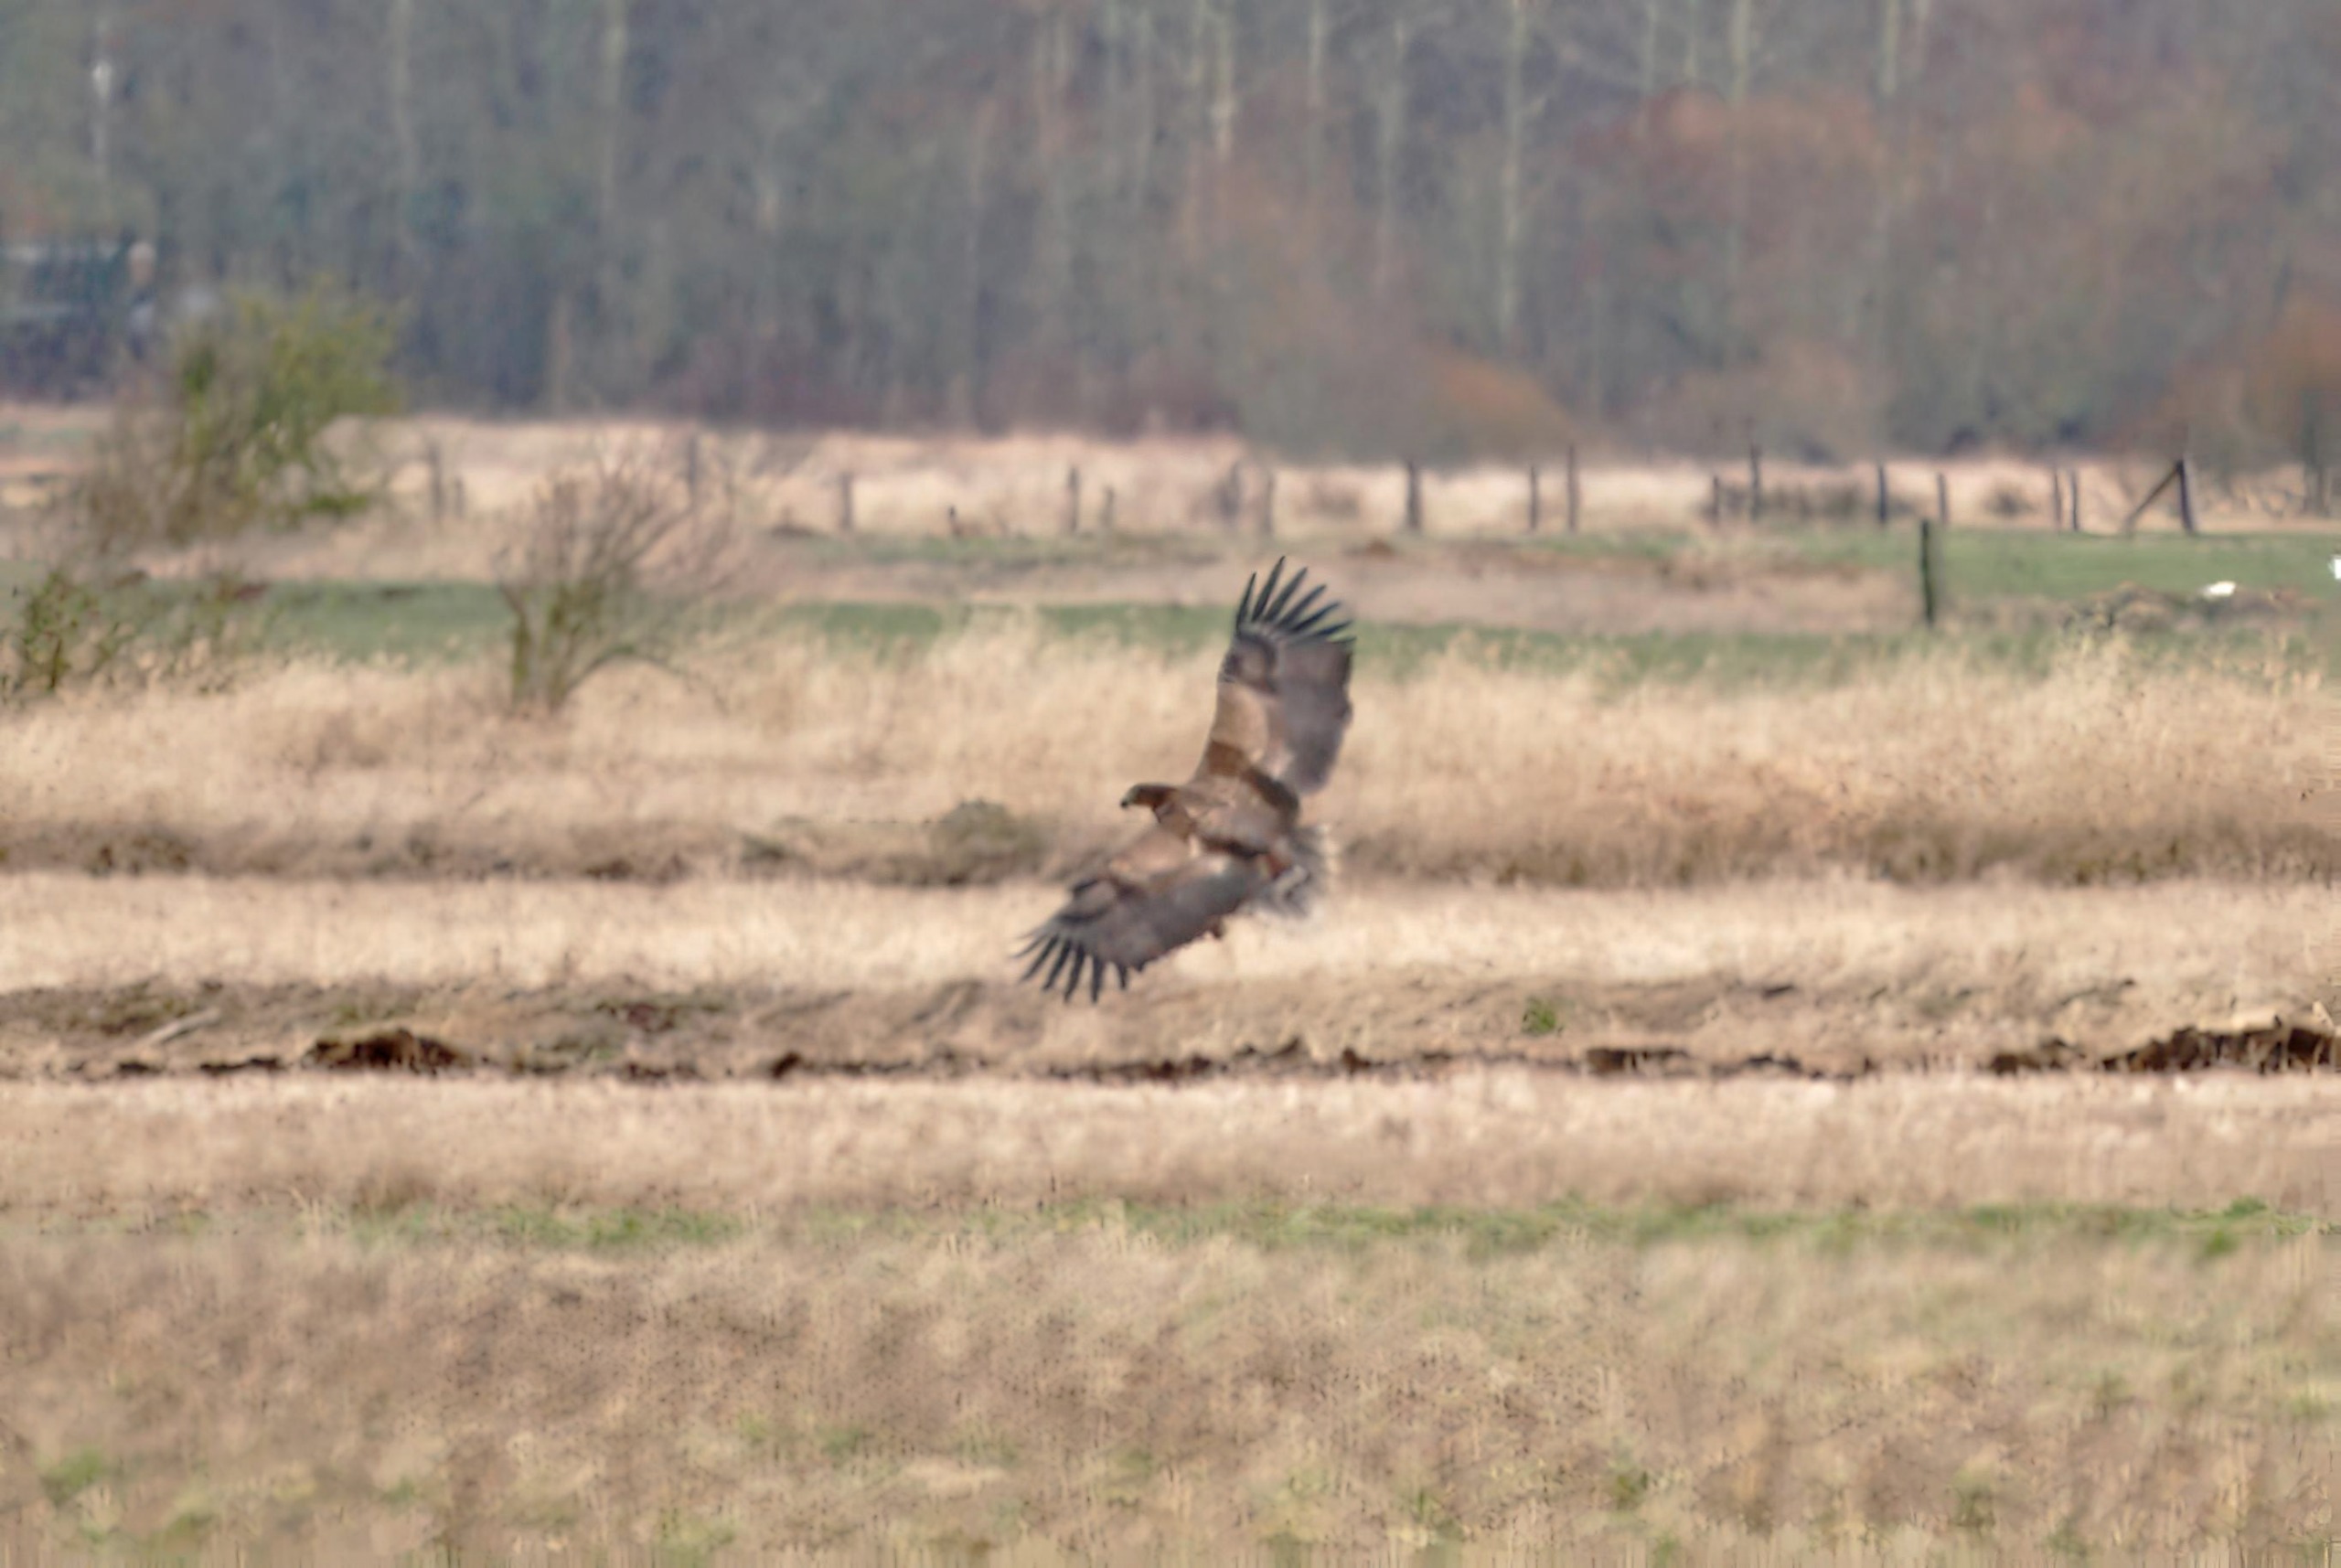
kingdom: Animalia
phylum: Chordata
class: Aves
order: Accipitriformes
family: Accipitridae
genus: Haliaeetus
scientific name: Haliaeetus albicilla
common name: Havørn
